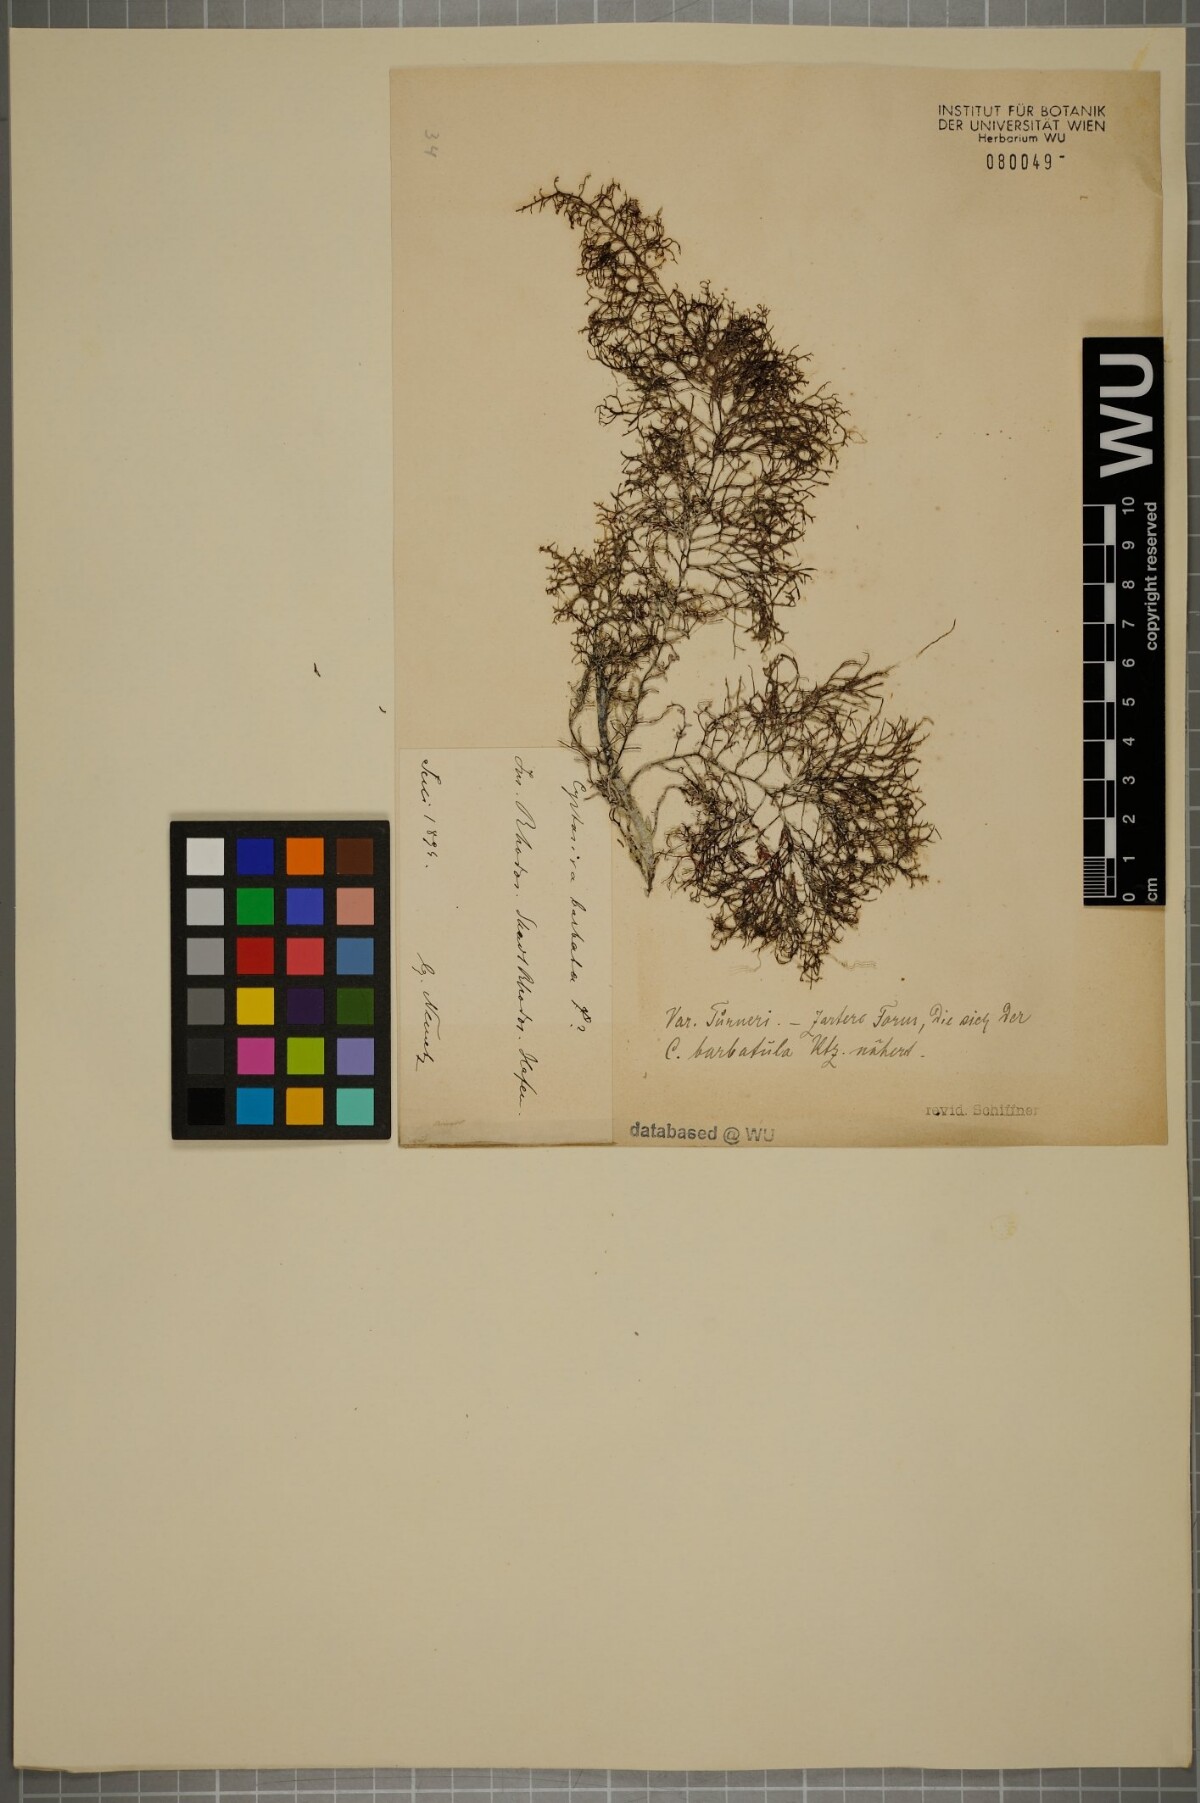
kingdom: Chromista
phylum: Ochrophyta
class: Phaeophyceae
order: Fucales
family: Sargassaceae
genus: Cystoseira
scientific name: Cystoseira Gongolaria barbata
